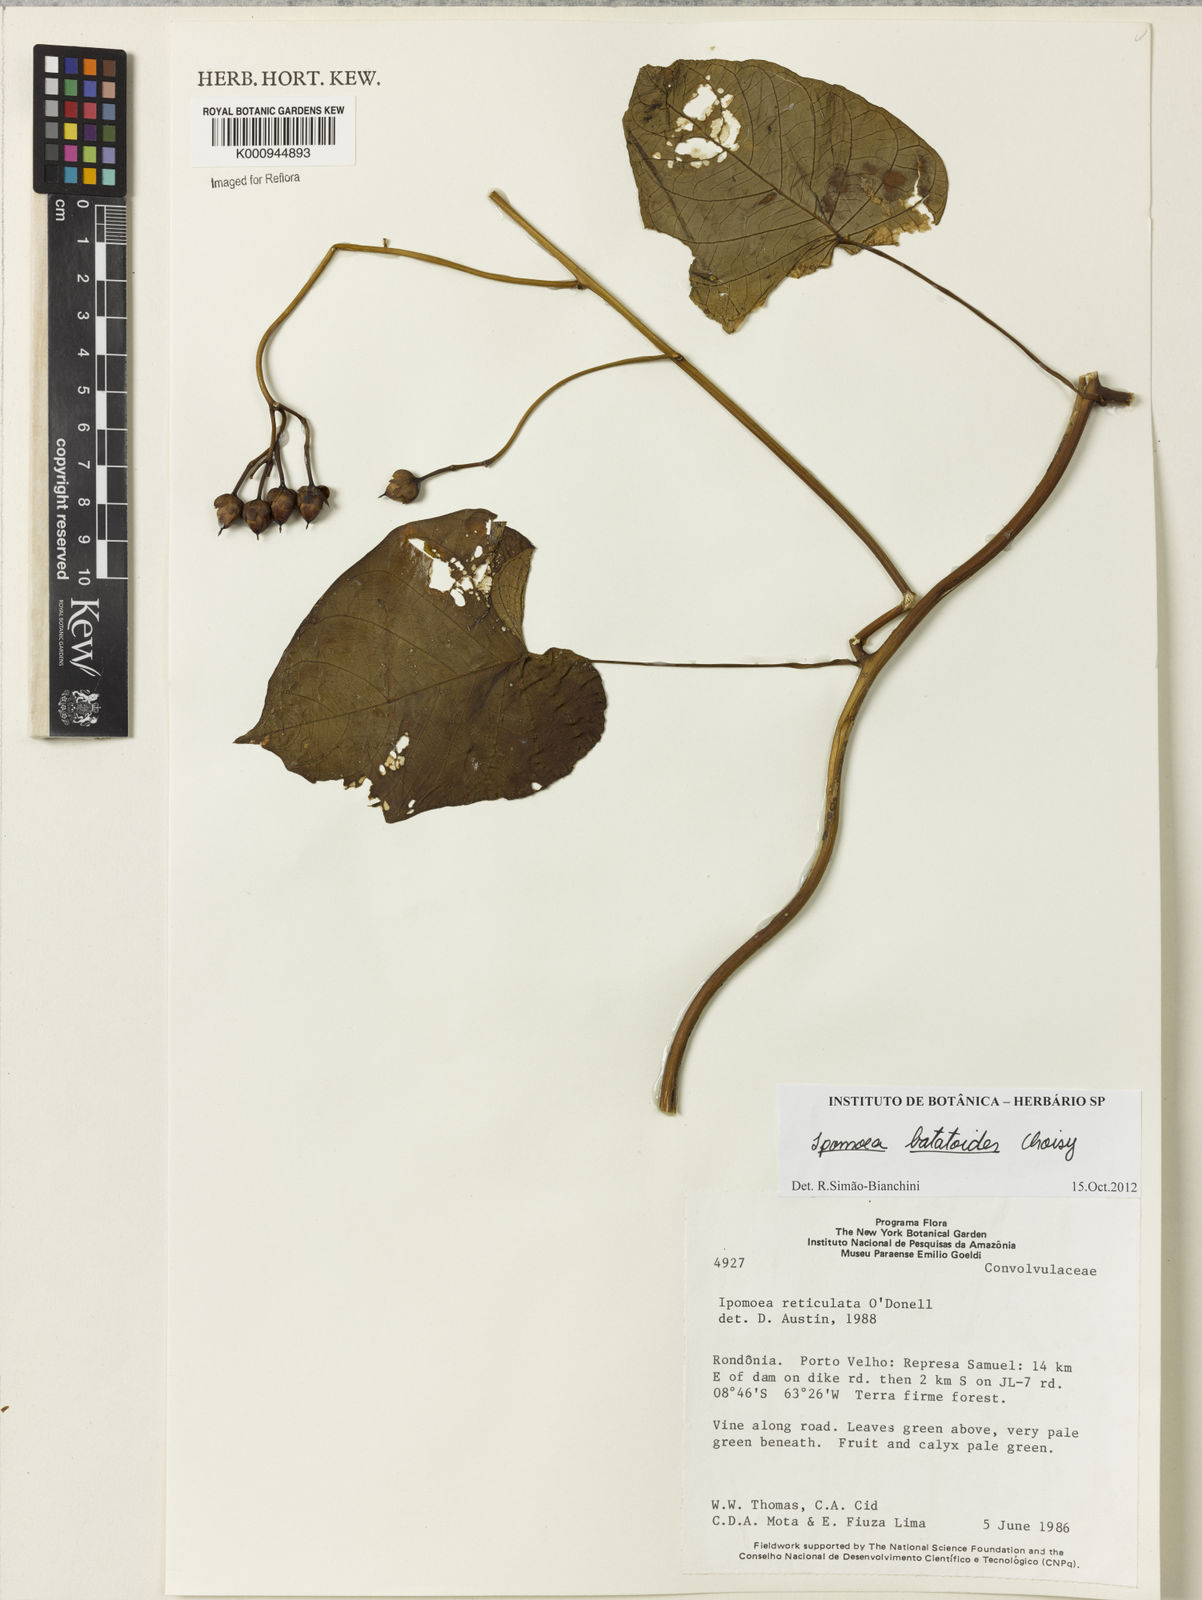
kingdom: Plantae
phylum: Tracheophyta
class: Magnoliopsida
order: Solanales
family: Convolvulaceae
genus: Ipomoea
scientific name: Ipomoea batatoides
